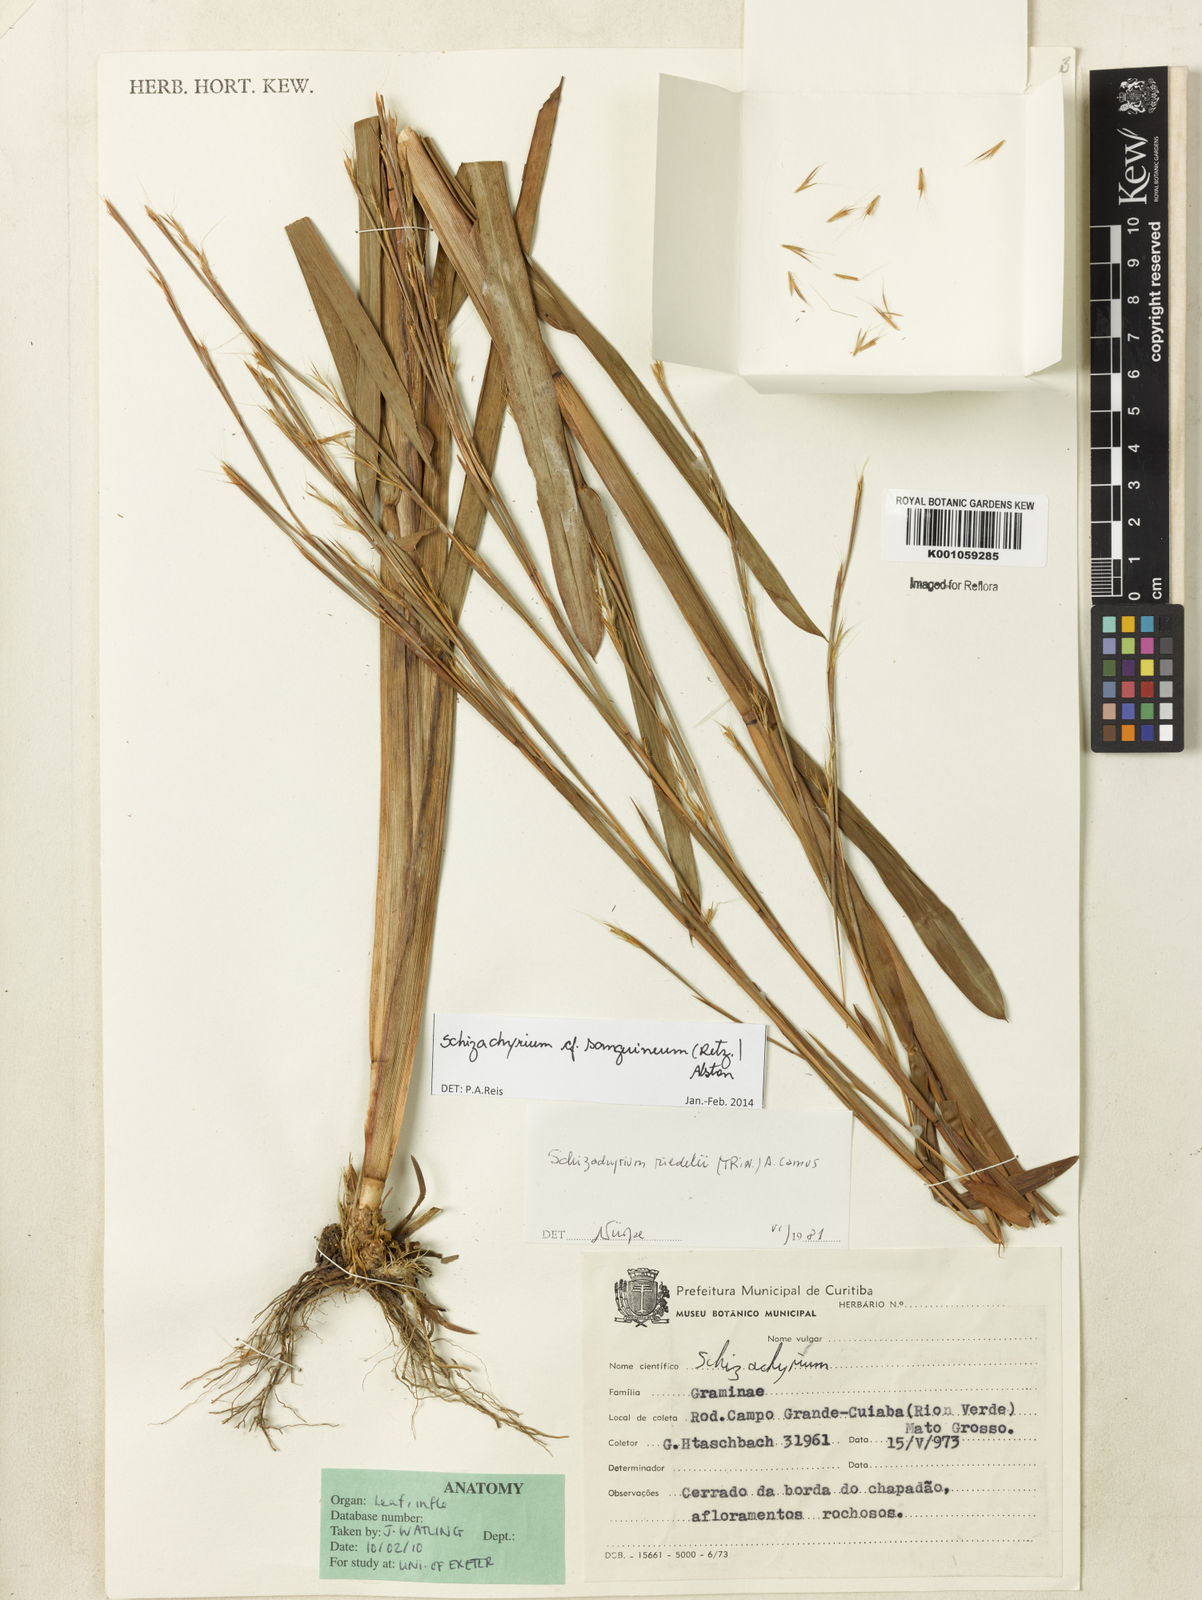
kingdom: Plantae
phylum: Tracheophyta
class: Liliopsida
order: Poales
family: Poaceae
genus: Schizachyrium
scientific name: Schizachyrium sanguineum
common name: Crimson bluestem
